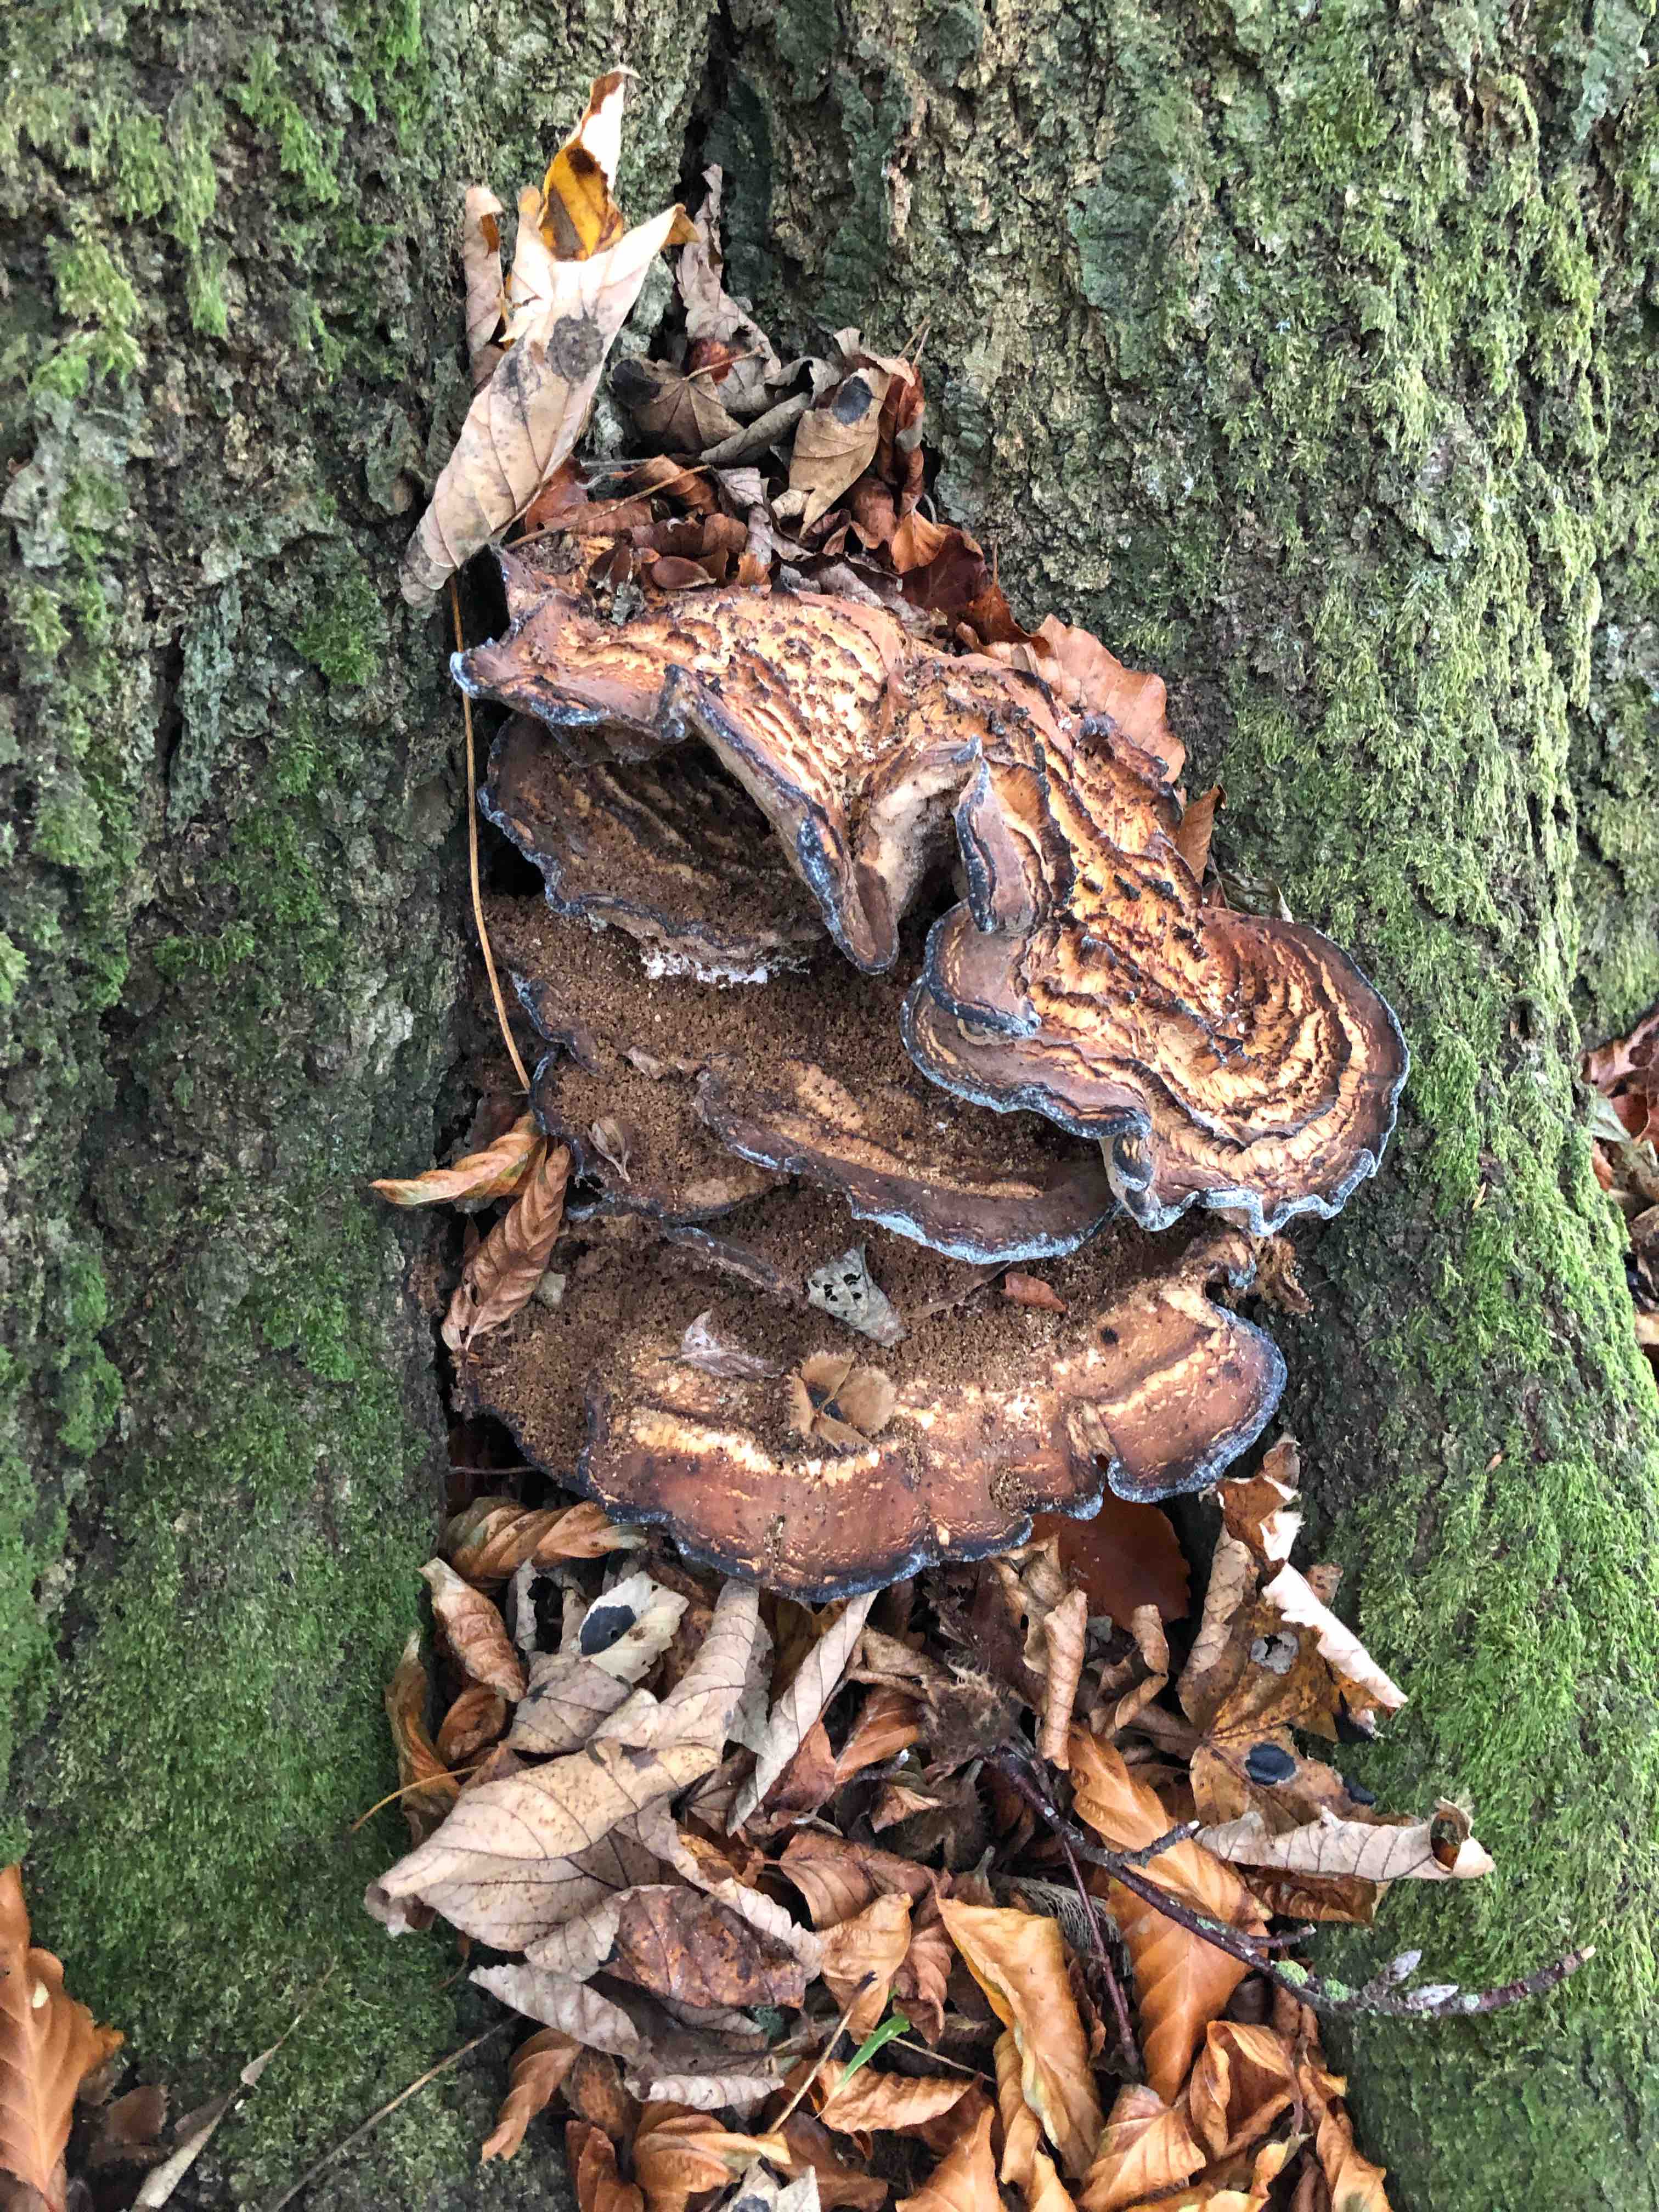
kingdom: Fungi
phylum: Basidiomycota
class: Agaricomycetes
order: Polyporales
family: Meripilaceae
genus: Meripilus
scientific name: Meripilus giganteus
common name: kæmpeporesvamp
